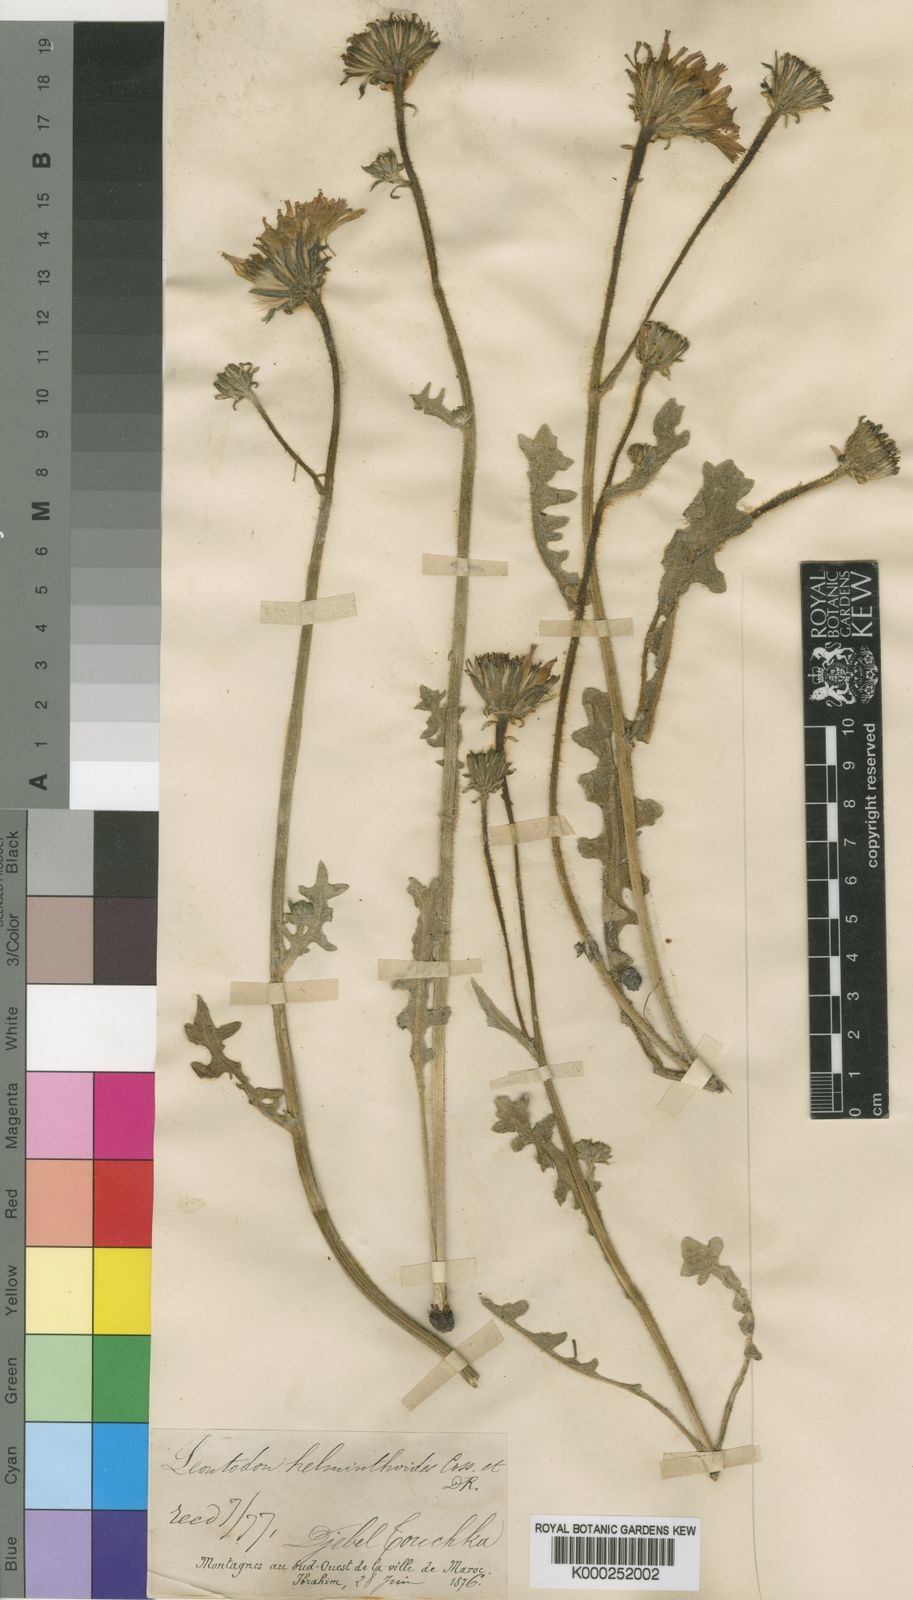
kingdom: Plantae
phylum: Tracheophyta
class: Magnoliopsida
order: Asterales
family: Asteraceae
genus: Leontodon
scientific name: Leontodon
